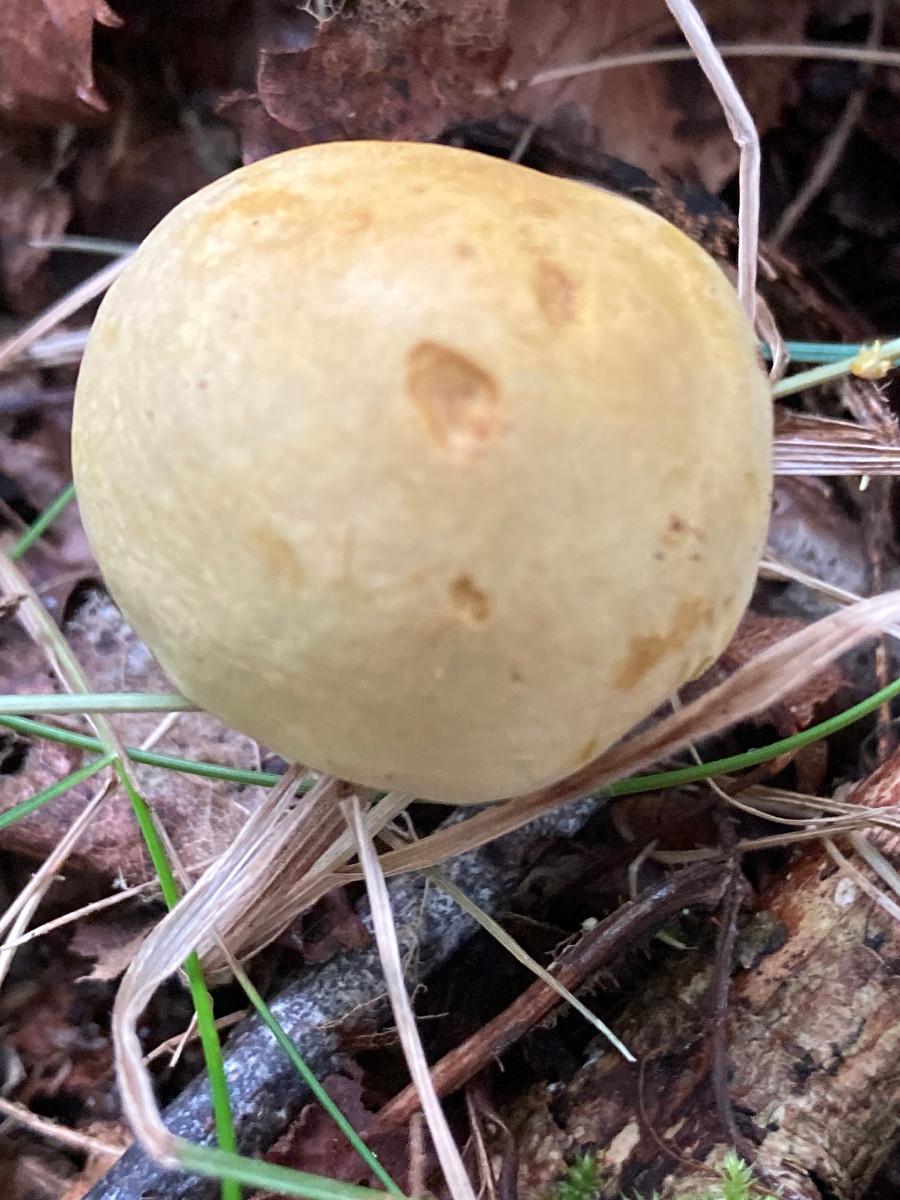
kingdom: Fungi
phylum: Basidiomycota
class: Agaricomycetes
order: Agaricales
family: Tricholomataceae
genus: Tricholoma
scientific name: Tricholoma sulphureum
